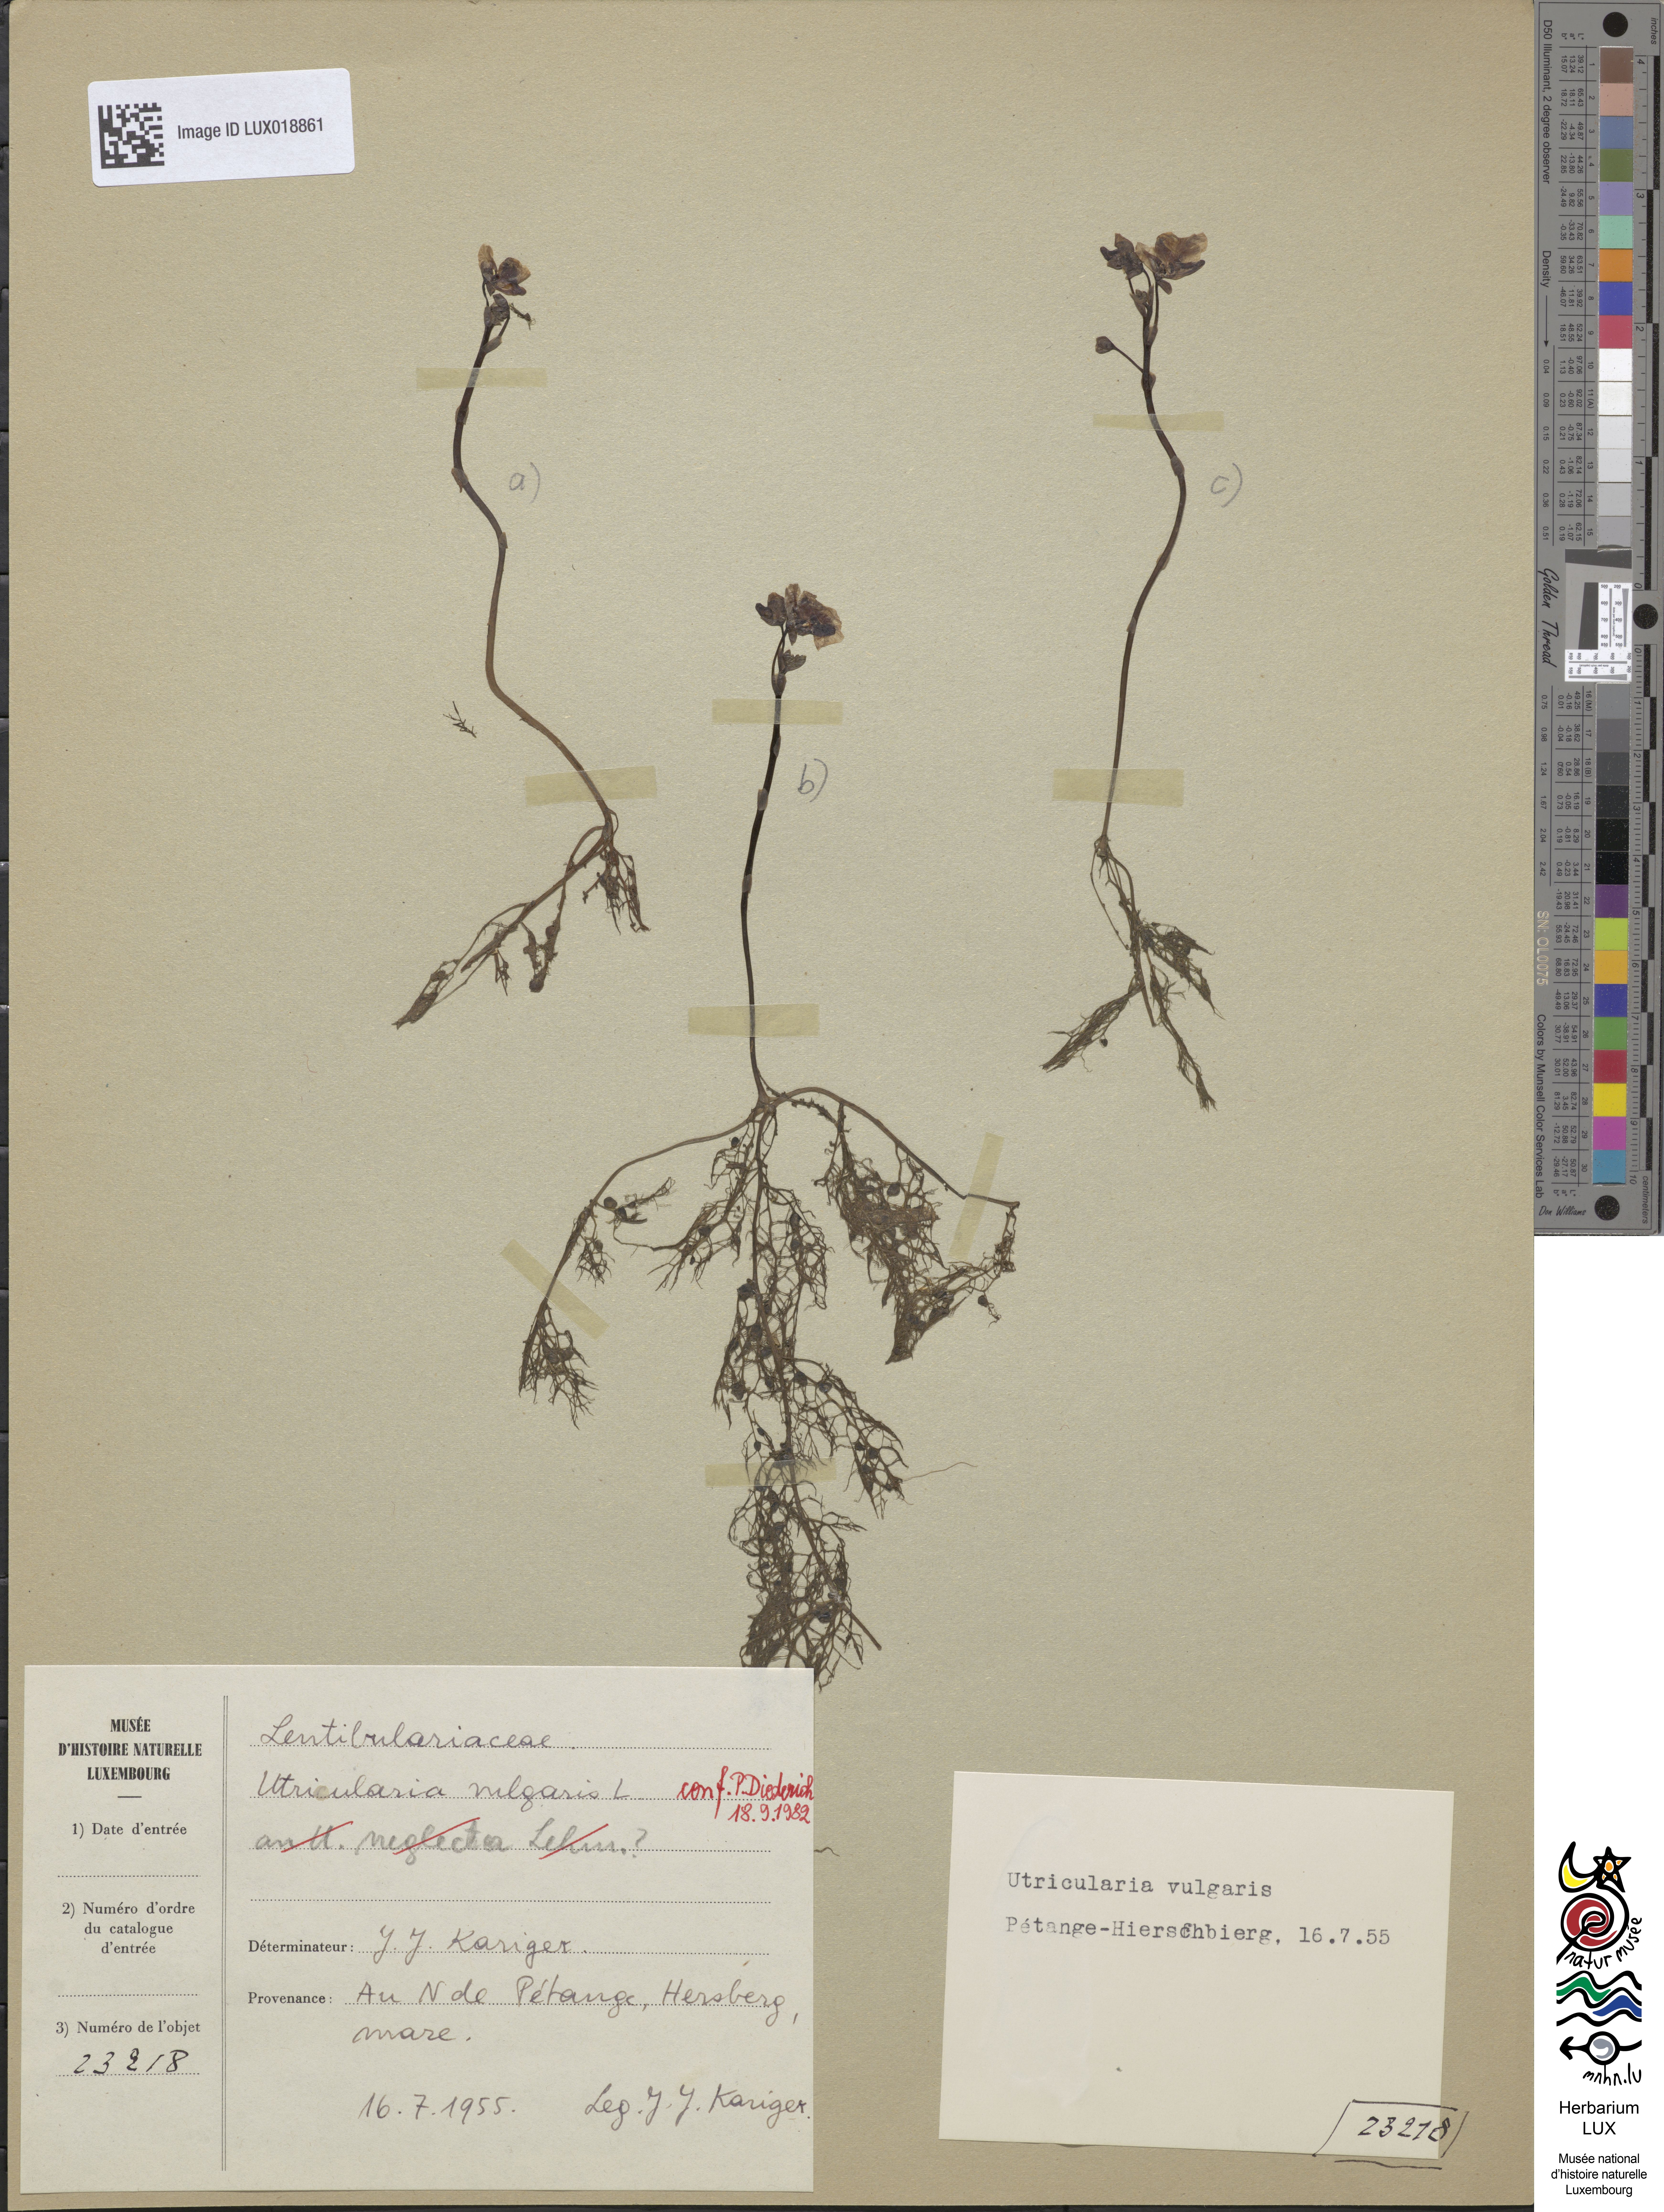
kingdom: Plantae
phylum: Tracheophyta
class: Magnoliopsida
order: Lamiales
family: Lentibulariaceae
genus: Utricularia
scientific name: Utricularia vulgaris
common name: Greater bladderwort
